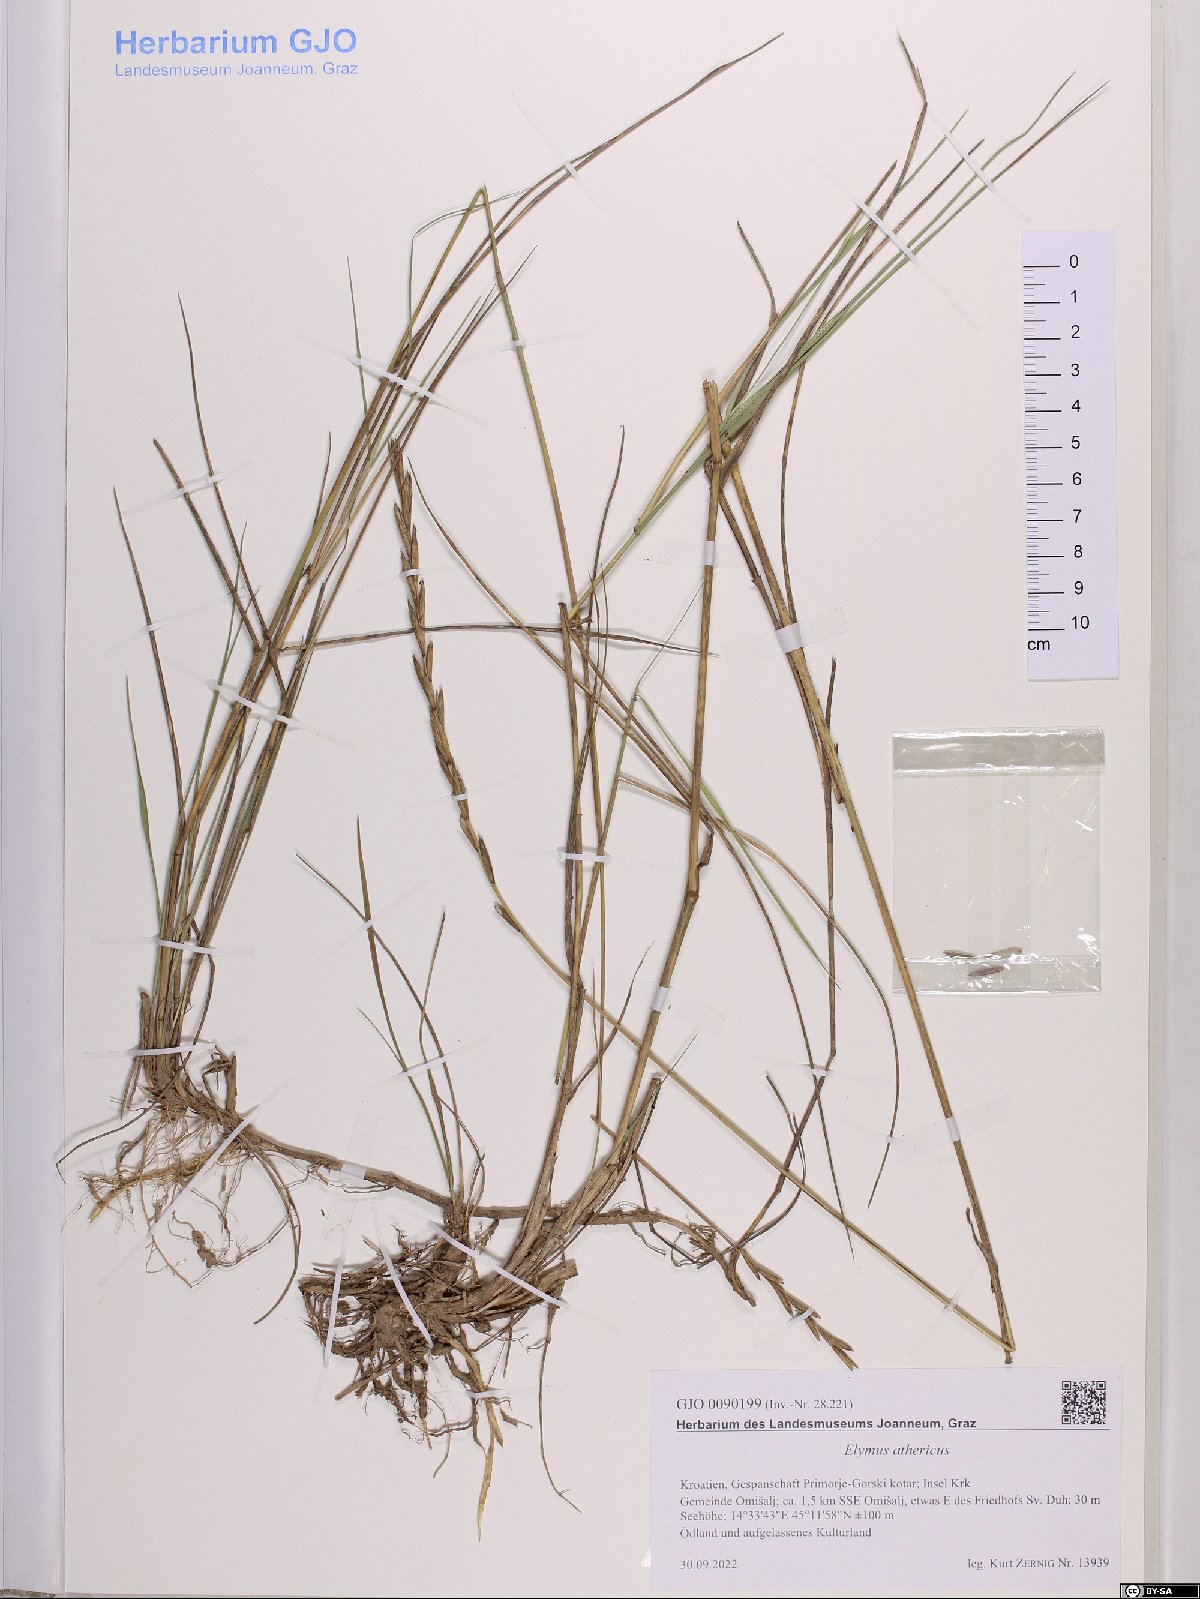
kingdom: Plantae
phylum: Tracheophyta
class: Liliopsida
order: Poales
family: Poaceae
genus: Elymus
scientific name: Elymus athericus
